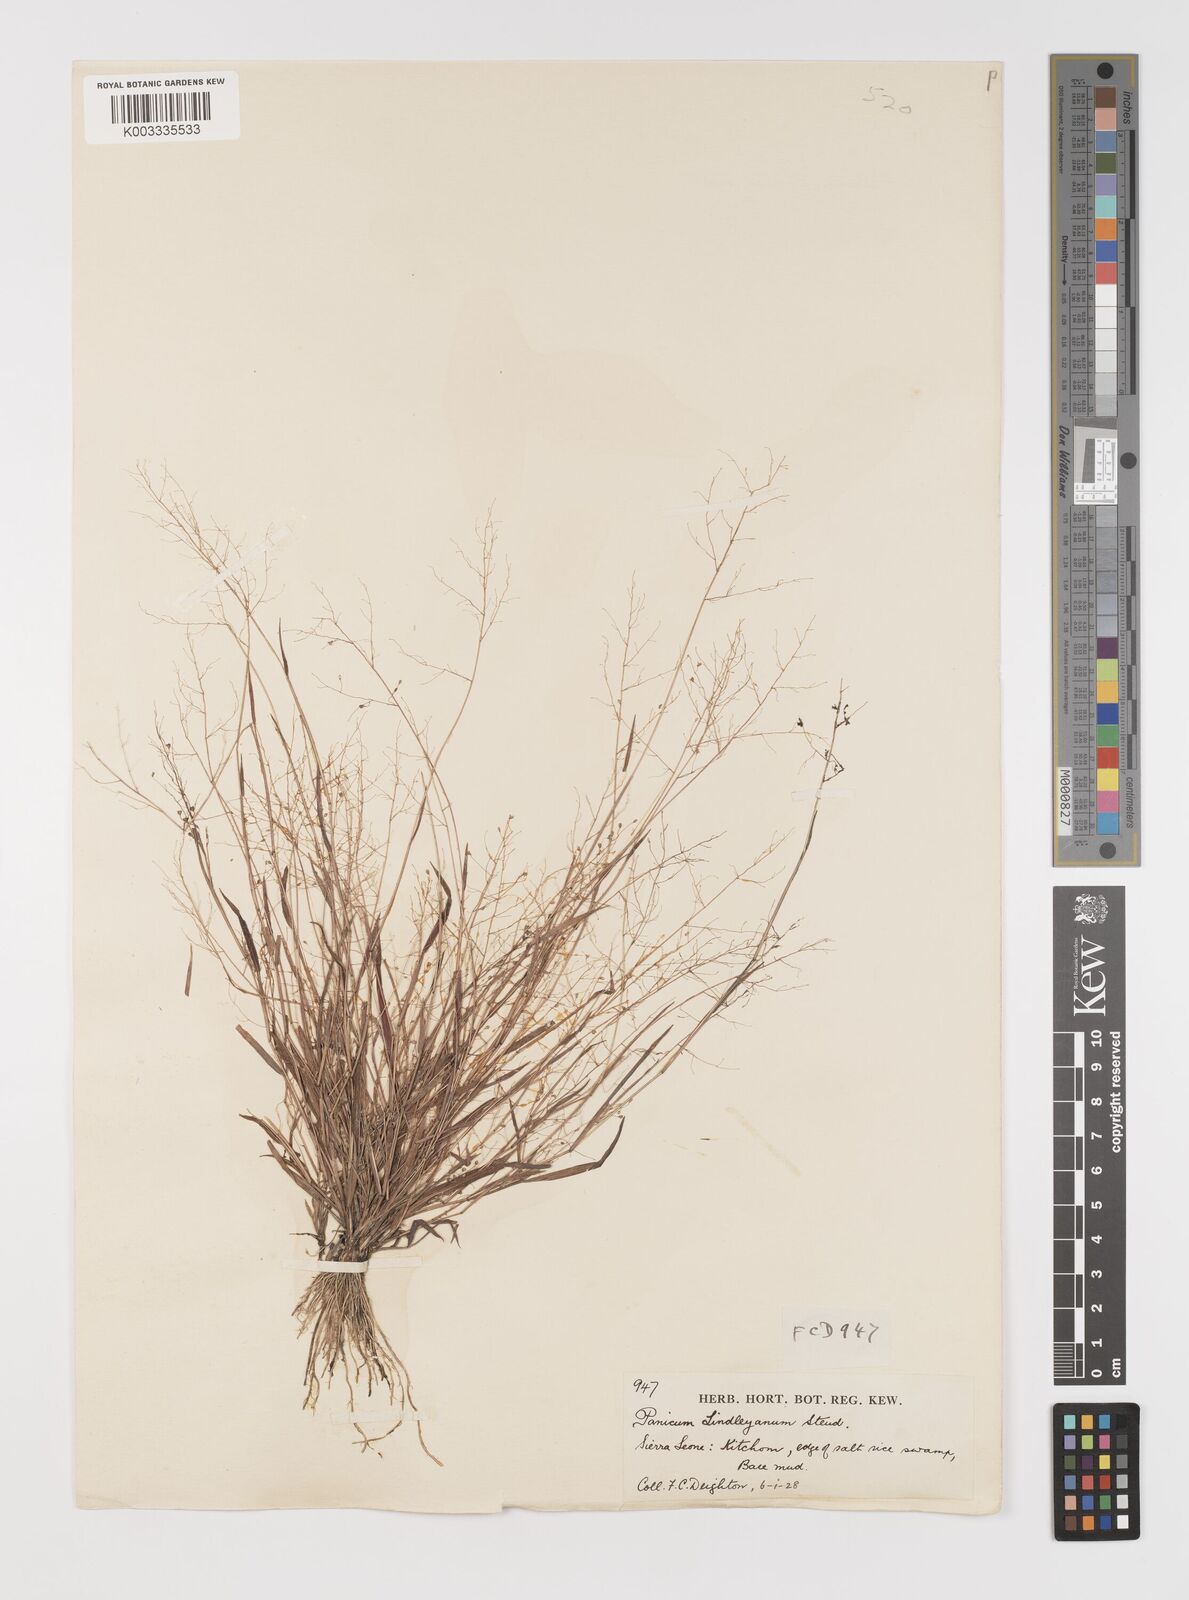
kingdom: Plantae
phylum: Tracheophyta
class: Liliopsida
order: Poales
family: Poaceae
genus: Trichanthecium
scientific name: Trichanthecium tenellum
